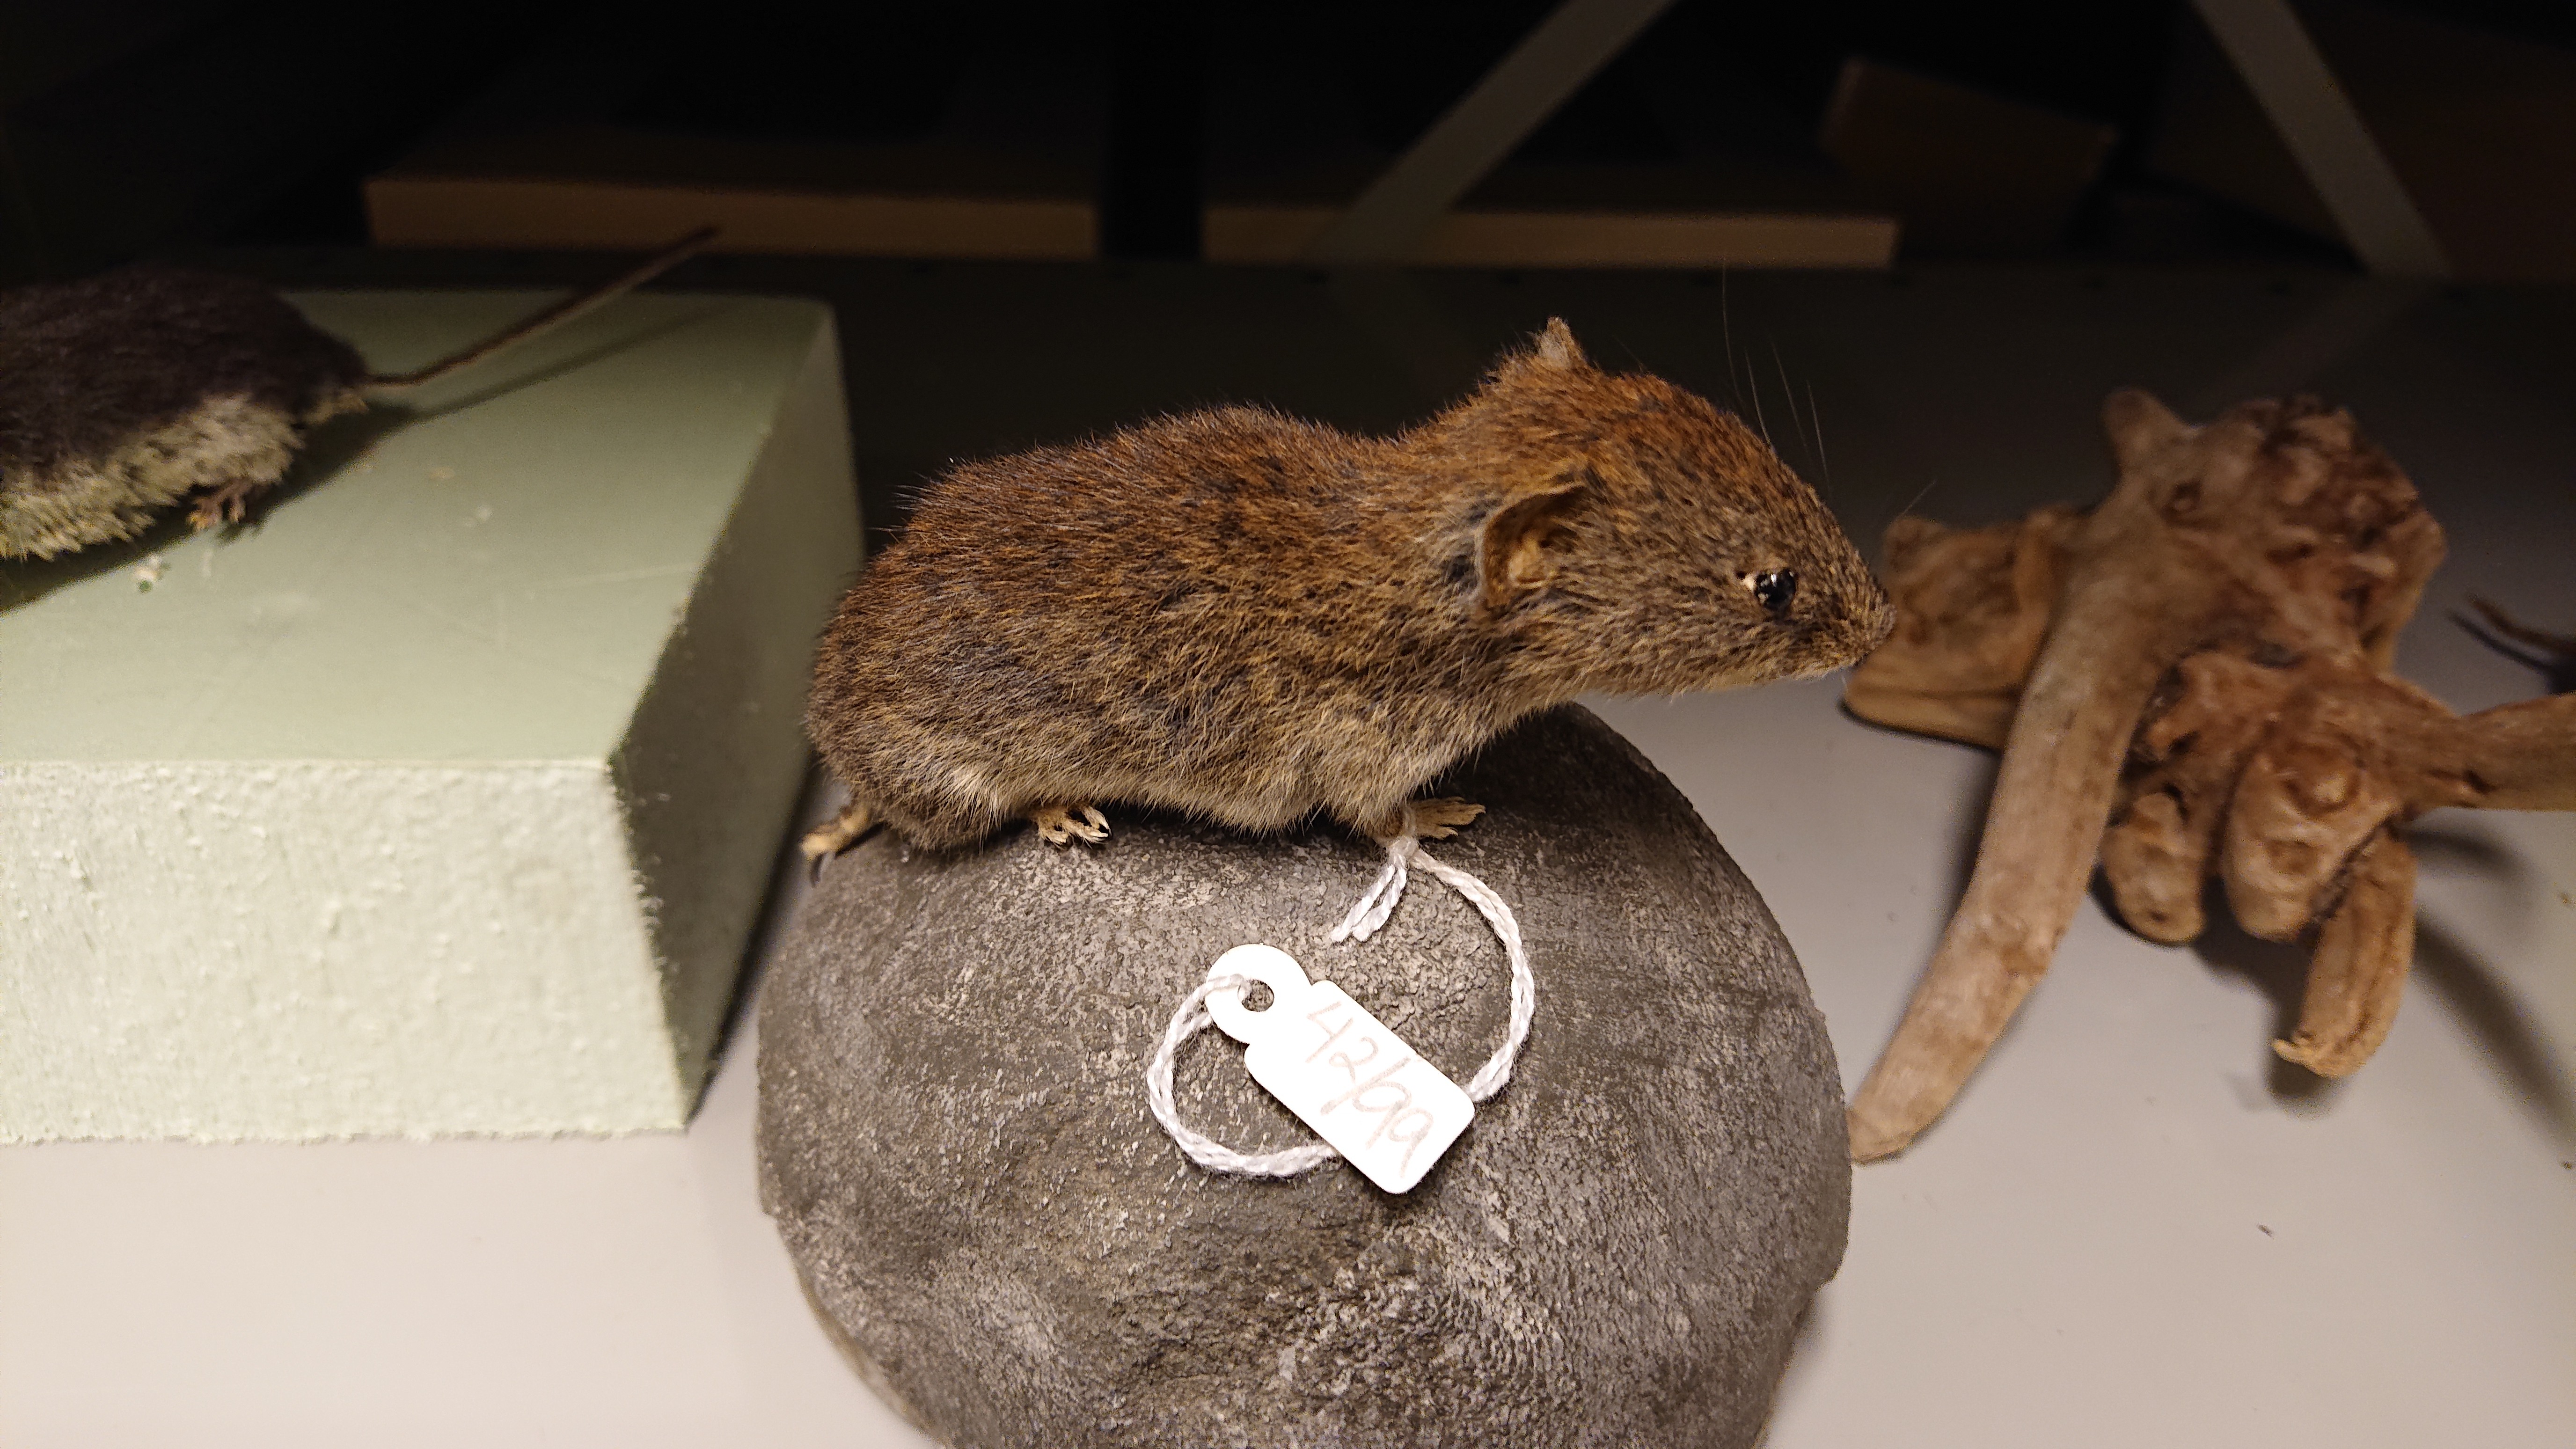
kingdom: Animalia
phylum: Chordata
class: Mammalia
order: Rodentia
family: Cricetidae
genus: Myodes
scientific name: Myodes glareolus
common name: Bank vole
